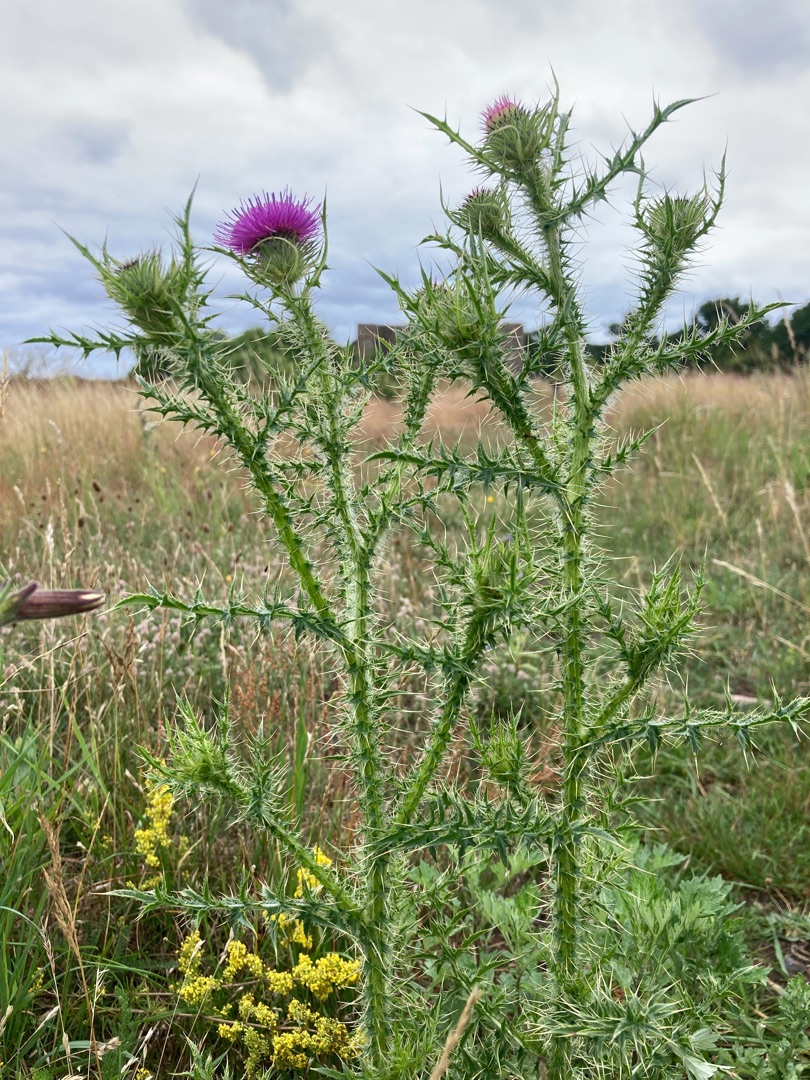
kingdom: Plantae
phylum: Tracheophyta
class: Magnoliopsida
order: Asterales
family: Asteraceae
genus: Carduus
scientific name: Carduus acanthoides
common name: Tornet tidsel
